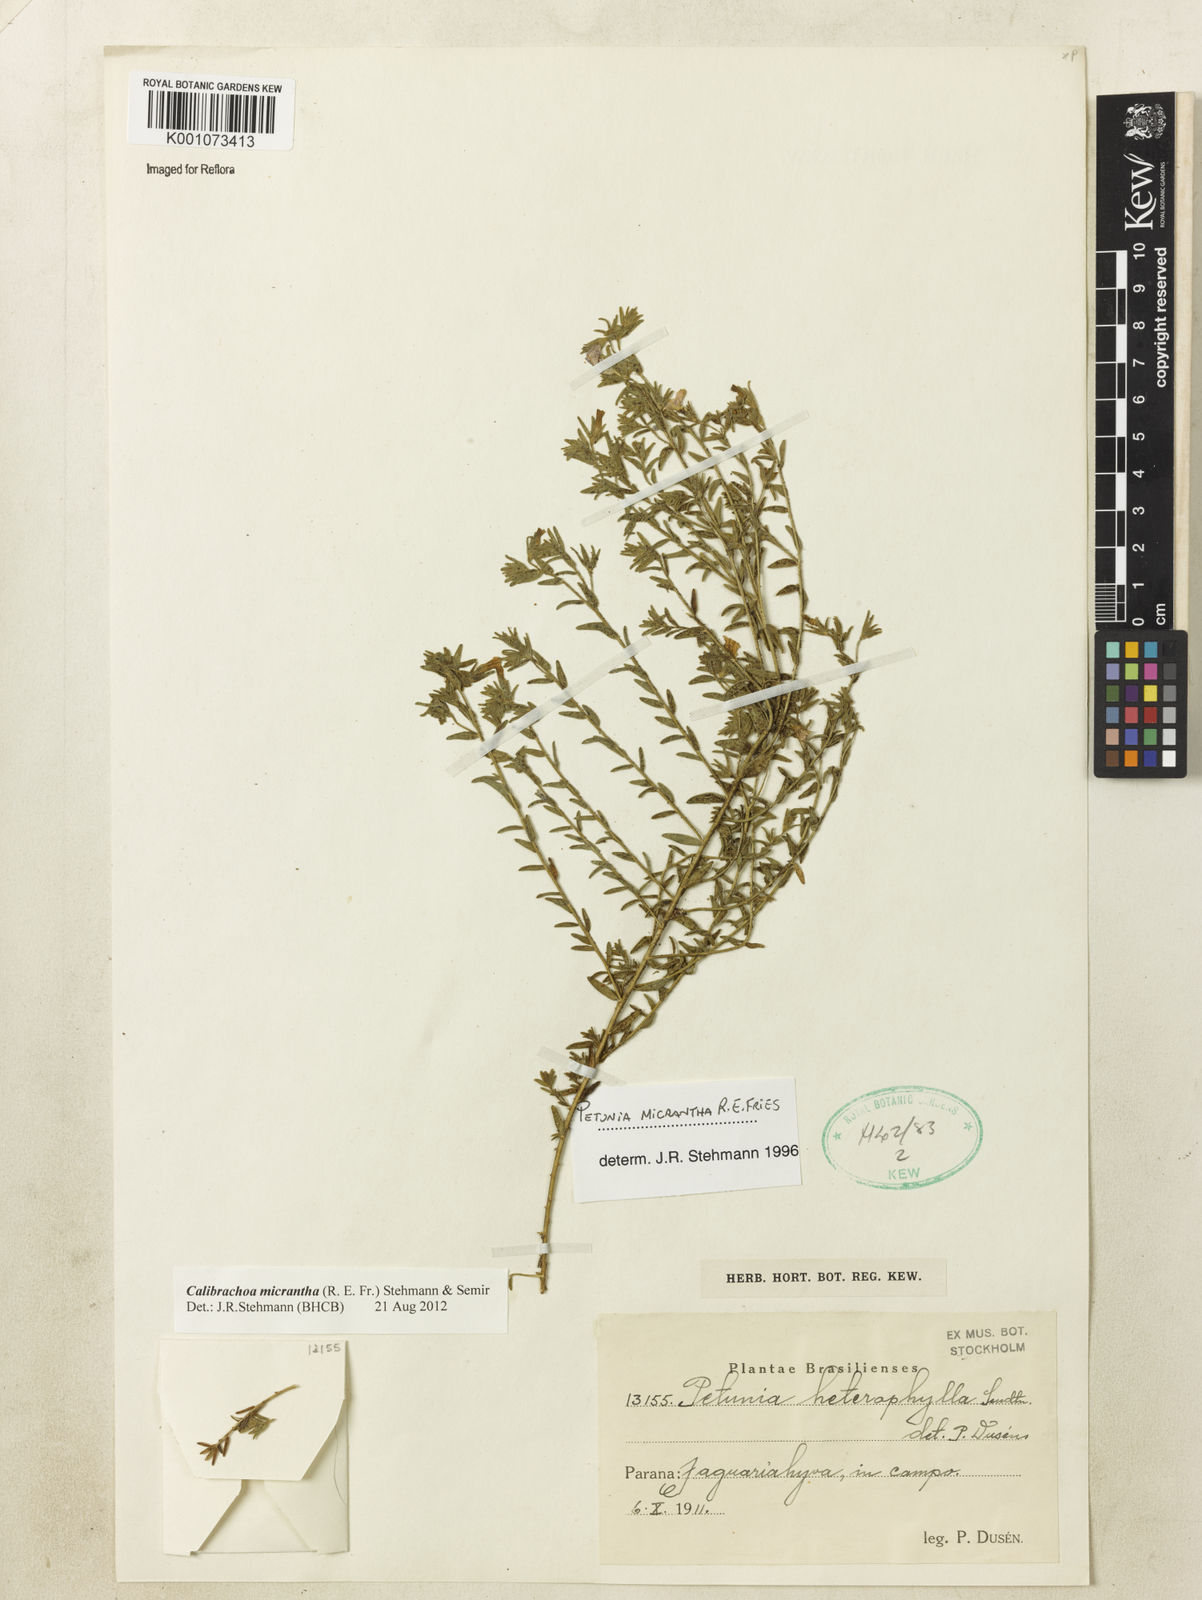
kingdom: Plantae
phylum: Tracheophyta
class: Magnoliopsida
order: Solanales
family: Solanaceae
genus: Calibrachoa
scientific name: Calibrachoa micrantha
